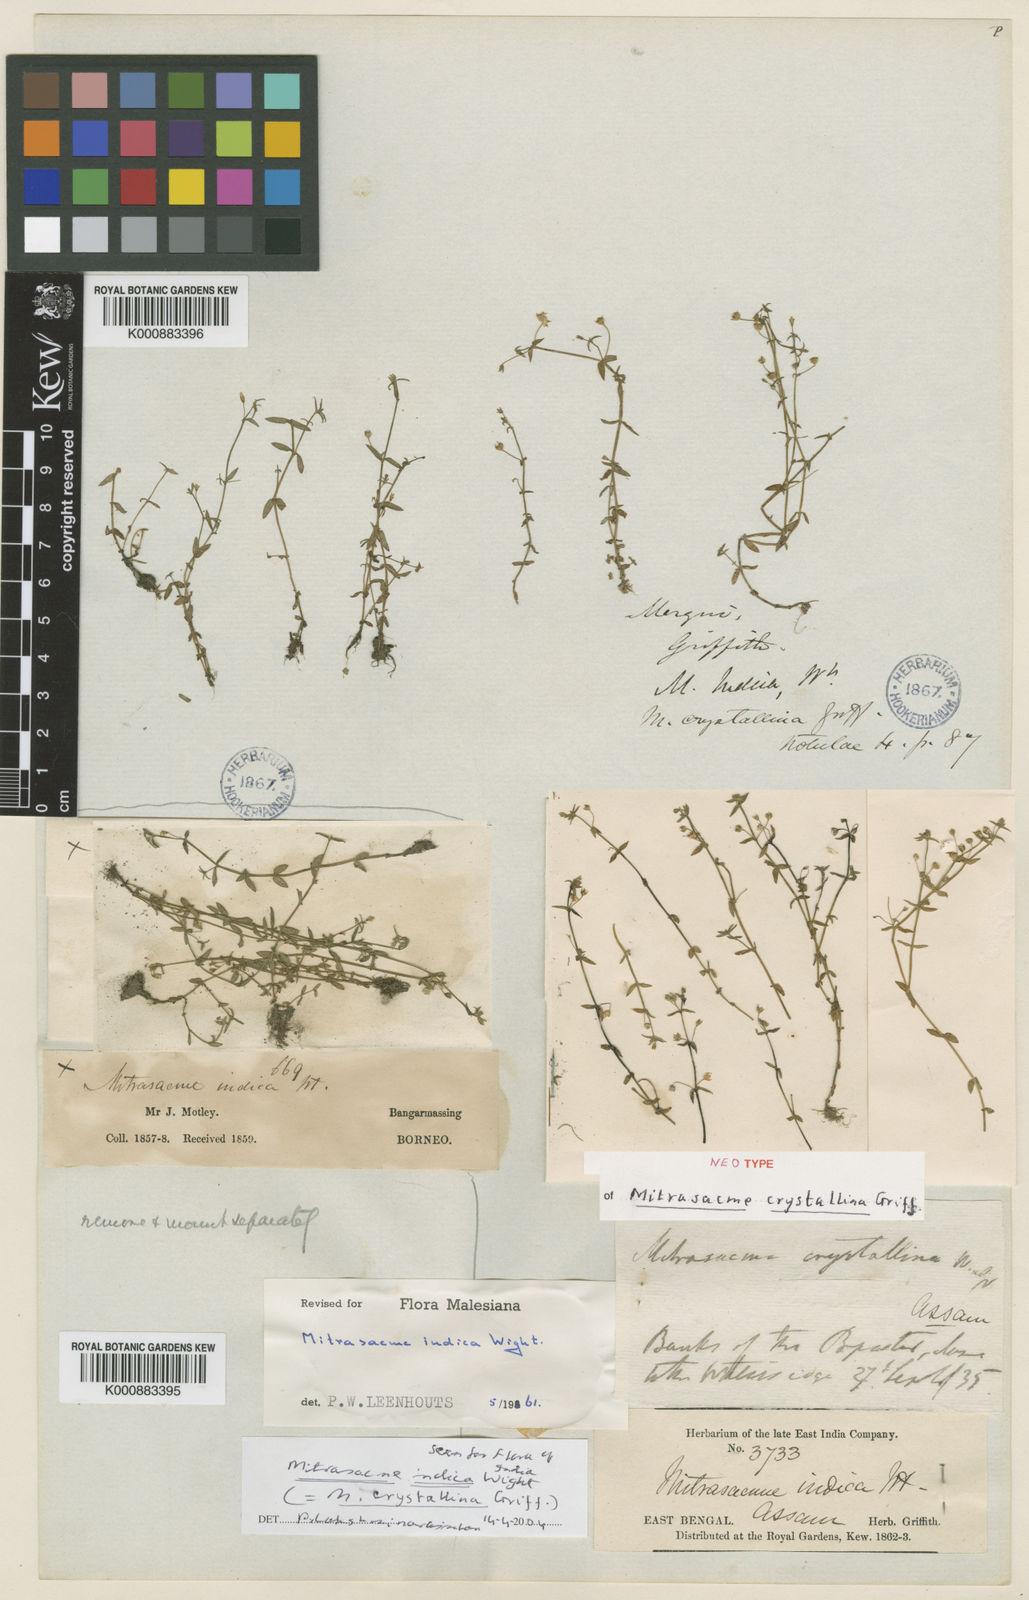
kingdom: Plantae
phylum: Tracheophyta
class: Magnoliopsida
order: Gentianales
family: Loganiaceae
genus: Mitrasacme
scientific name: Mitrasacme prolifera
